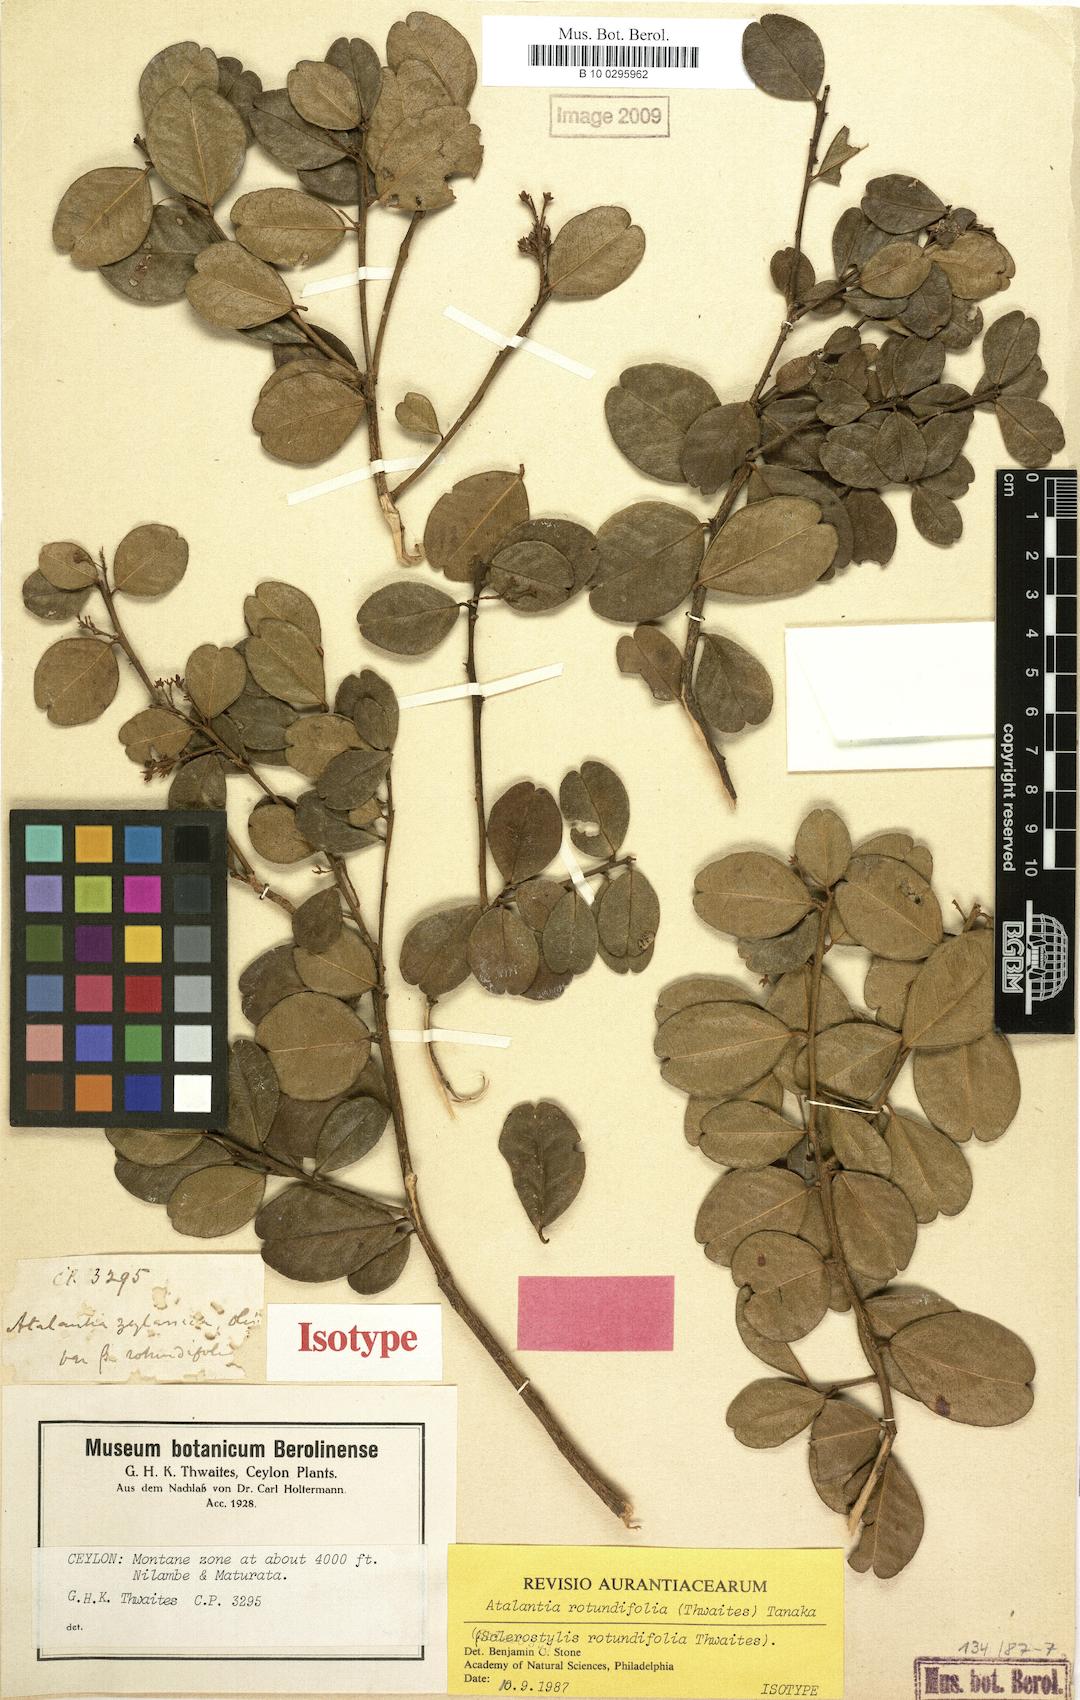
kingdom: Plantae
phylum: Tracheophyta
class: Magnoliopsida
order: Sapindales
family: Rutaceae
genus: Atalantia
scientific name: Atalantia rotundifolia
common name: Dwarf ceylon atalantia
